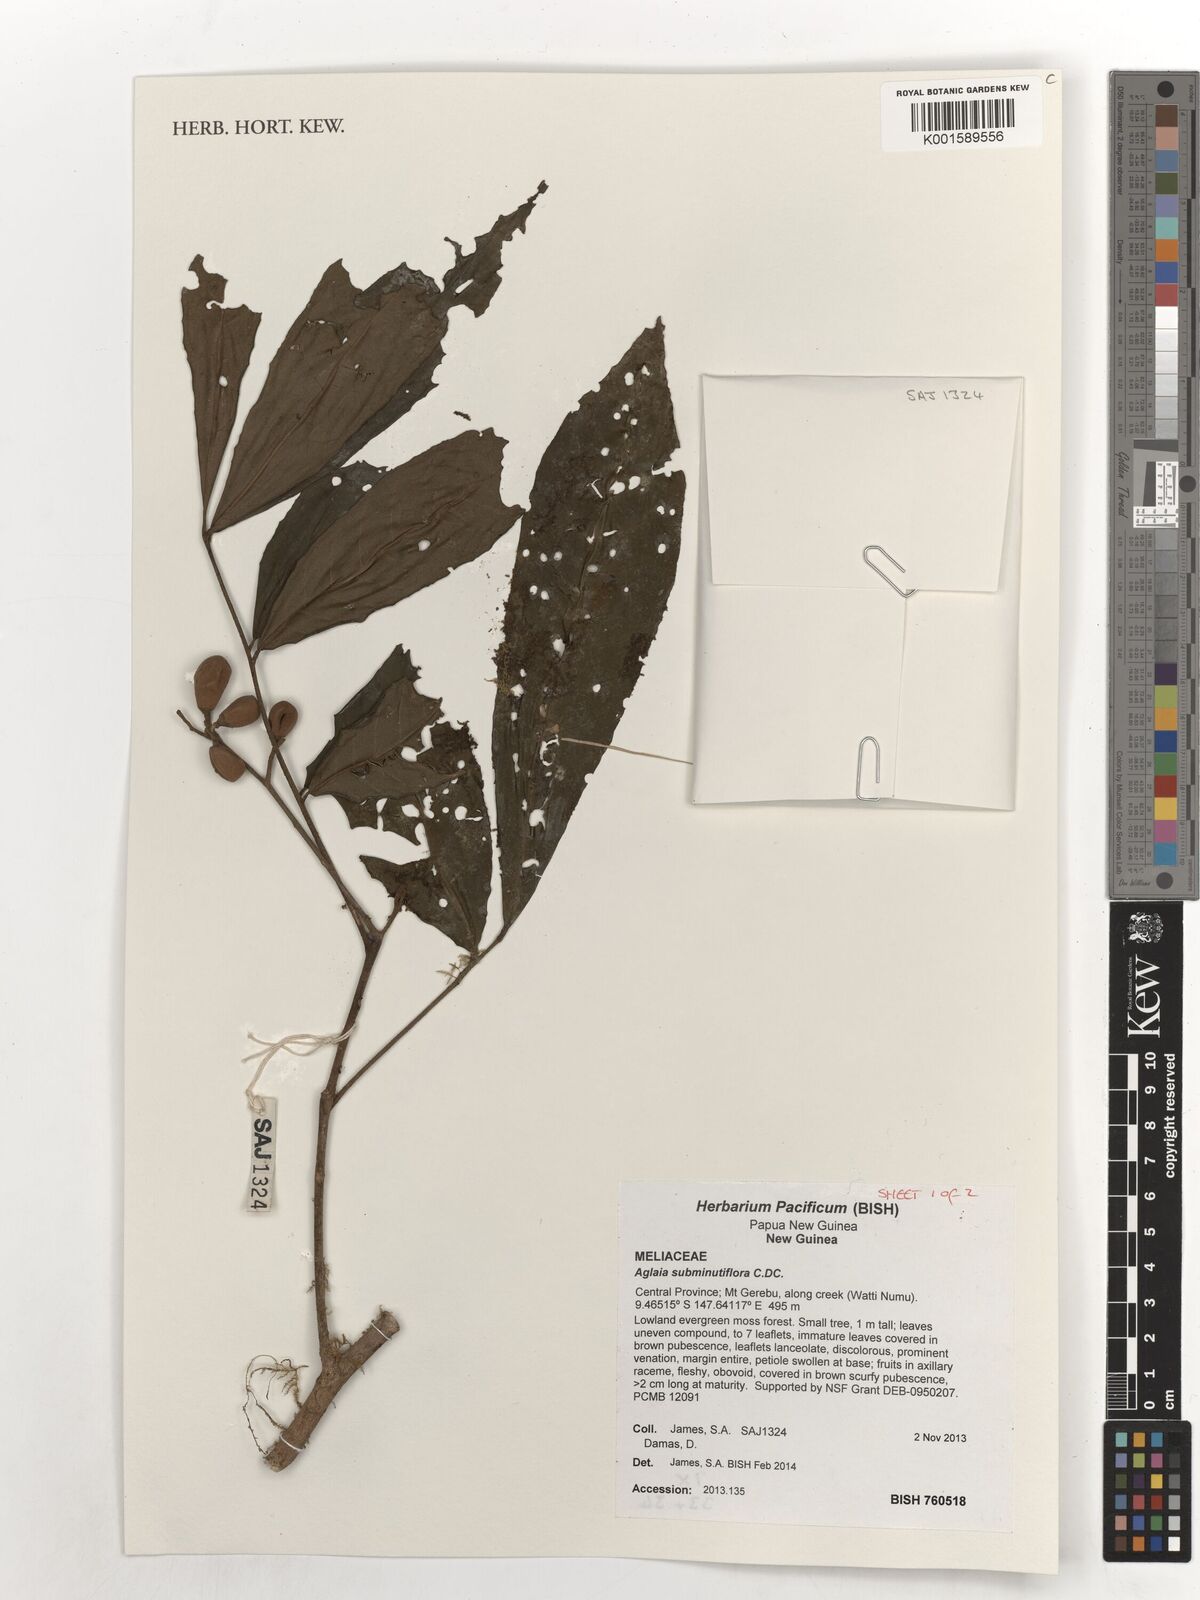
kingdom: Plantae
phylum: Tracheophyta
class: Magnoliopsida
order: Sapindales
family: Meliaceae
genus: Aglaia
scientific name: Aglaia subminutiflora
